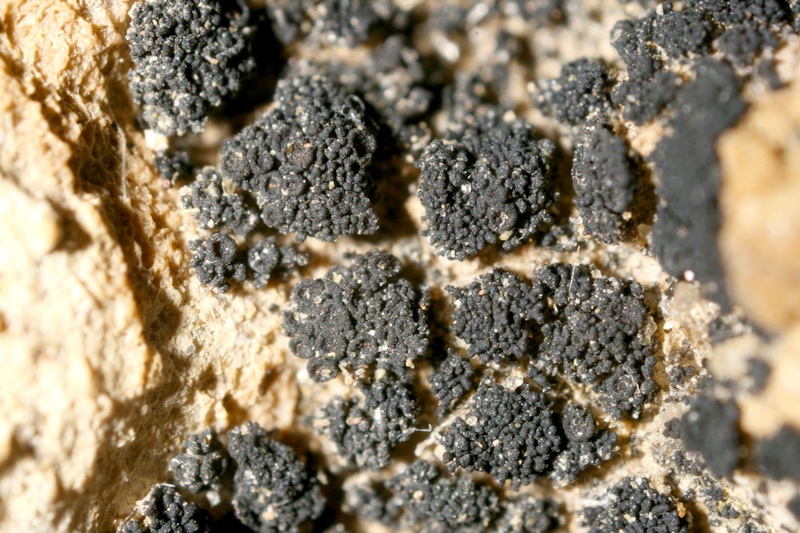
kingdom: Fungi
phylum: Ascomycota
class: Lichinomycetes
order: Lichinales
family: Peltulaceae
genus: Peltula
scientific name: Peltula omphaliza
